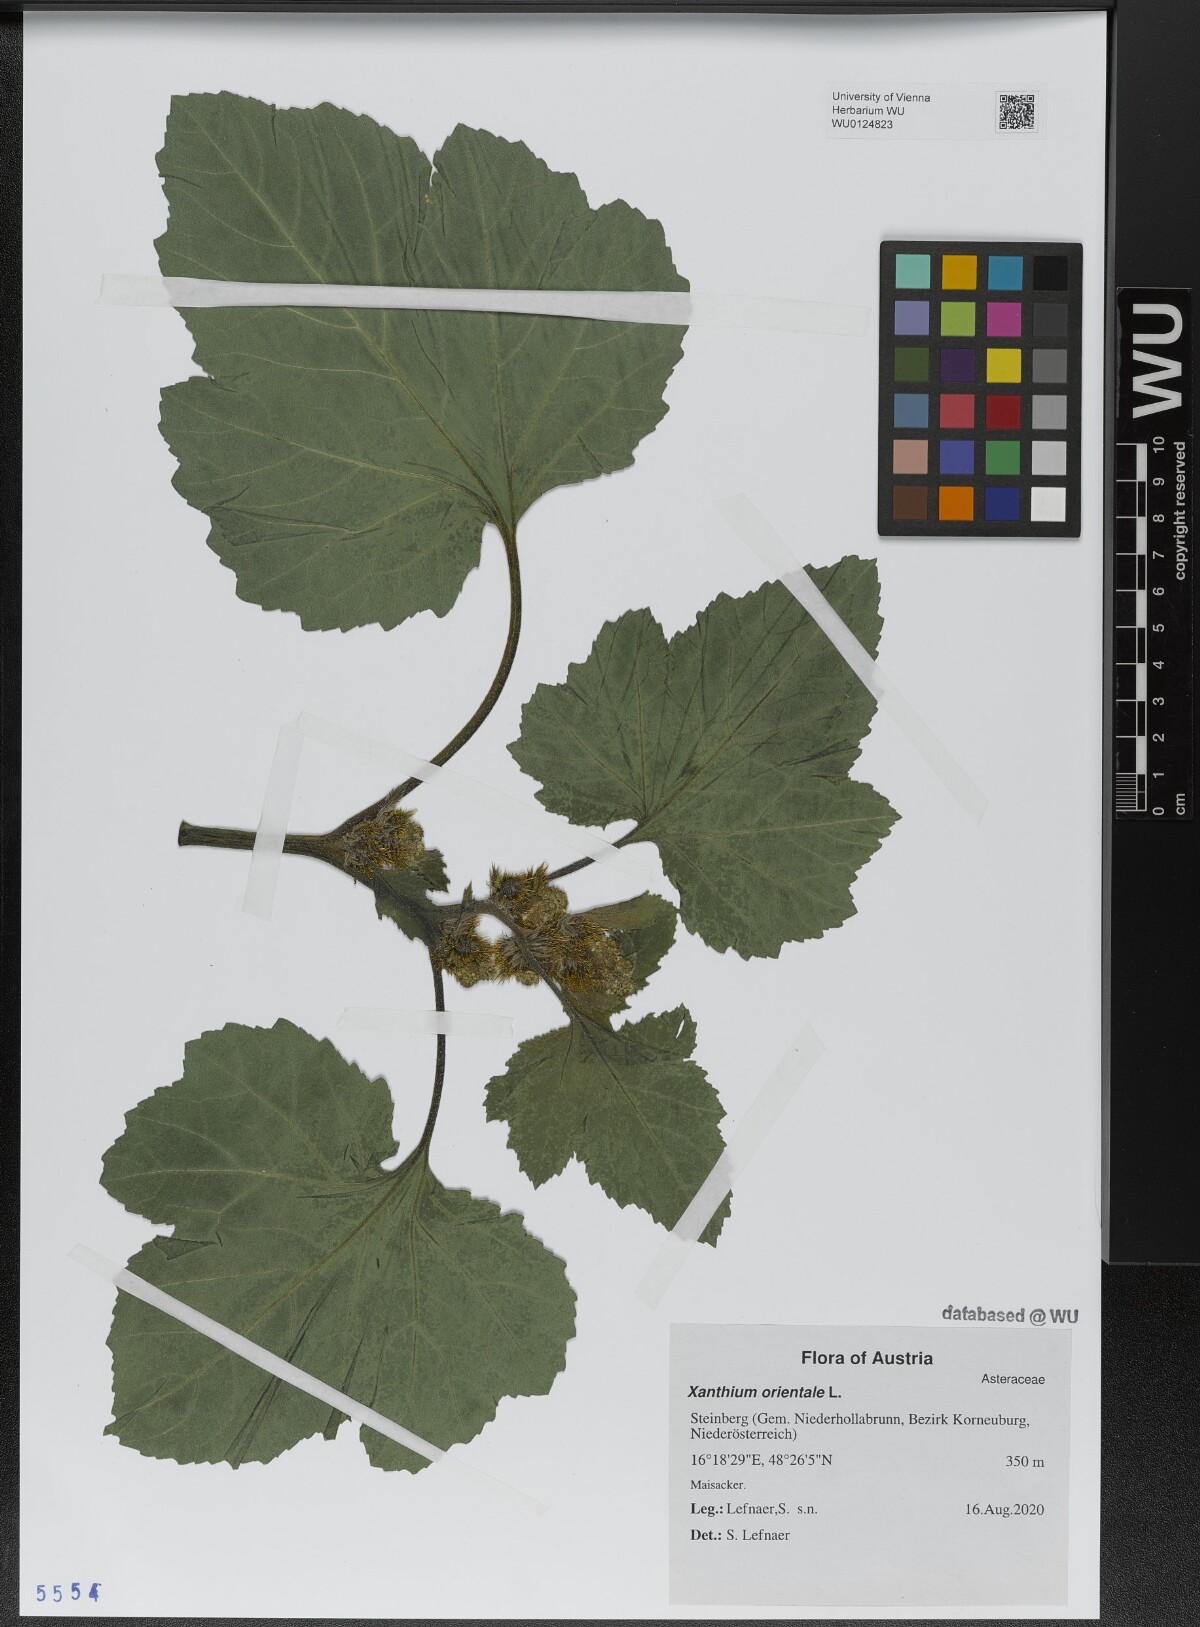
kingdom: Plantae
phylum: Tracheophyta
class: Magnoliopsida
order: Asterales
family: Asteraceae
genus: Xanthium
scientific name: Xanthium orientale
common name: Californian burr
